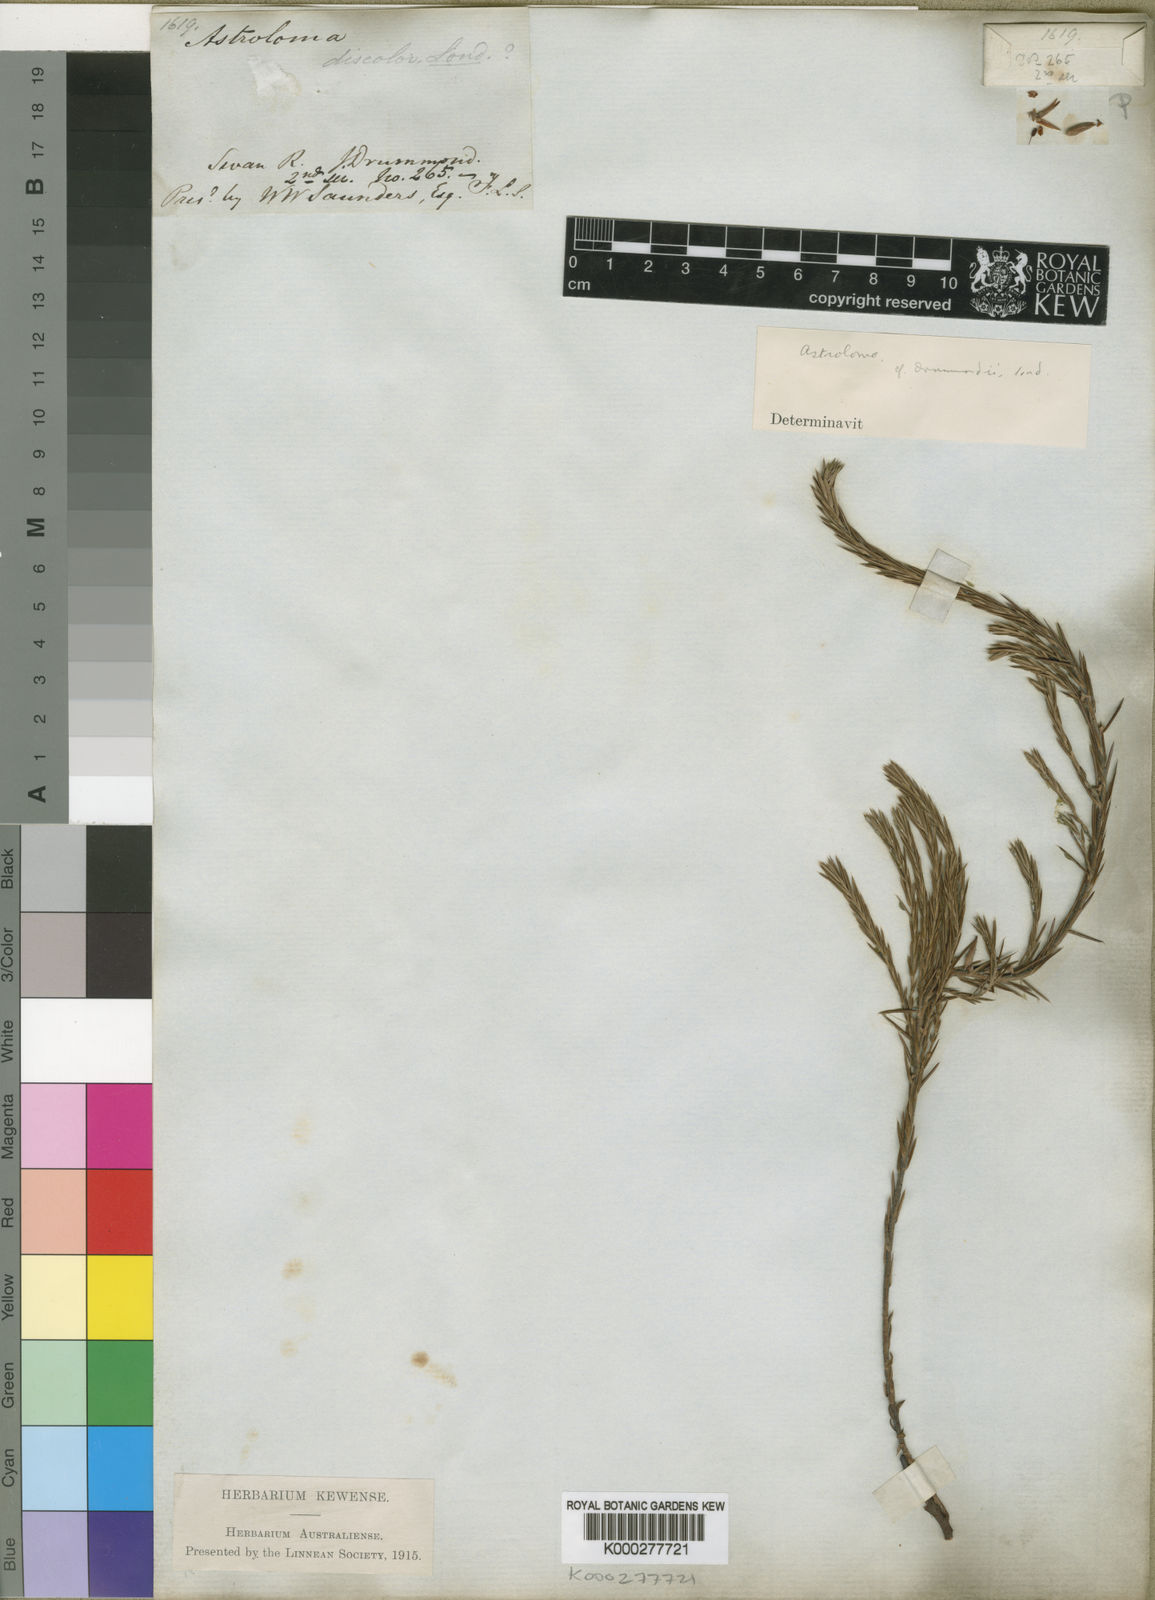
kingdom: Plantae
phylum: Tracheophyta
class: Magnoliopsida
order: Ericales
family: Ericaceae
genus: Styphelia
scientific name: Styphelia epacridis
